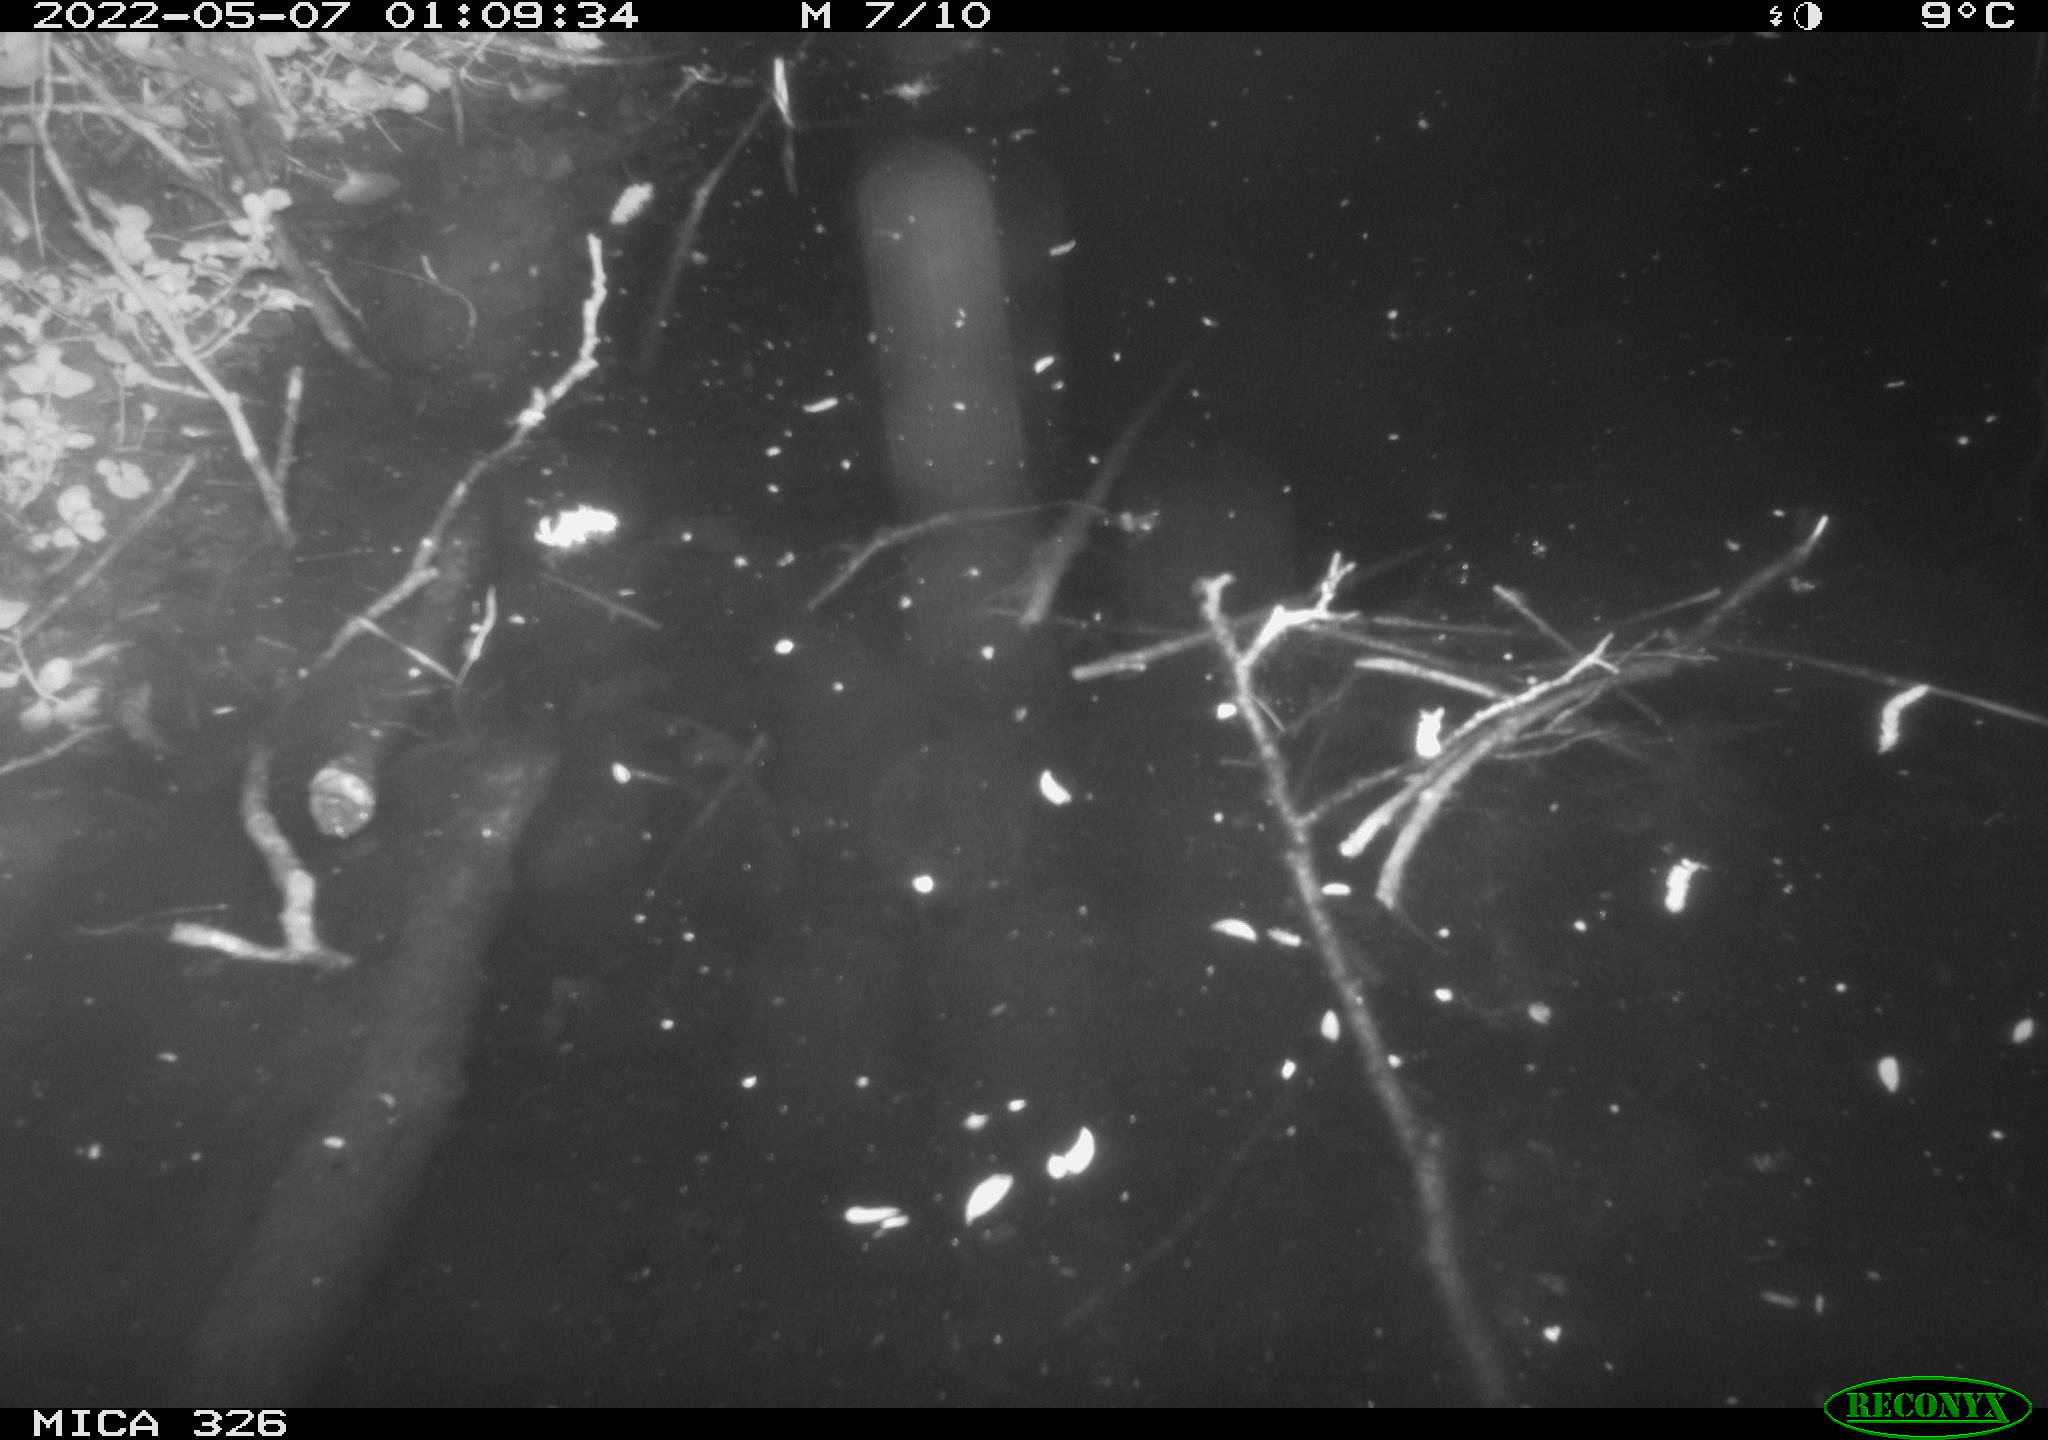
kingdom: Animalia
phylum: Chordata
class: Mammalia
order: Rodentia
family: Cricetidae
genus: Ondatra
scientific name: Ondatra zibethicus
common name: Muskrat
